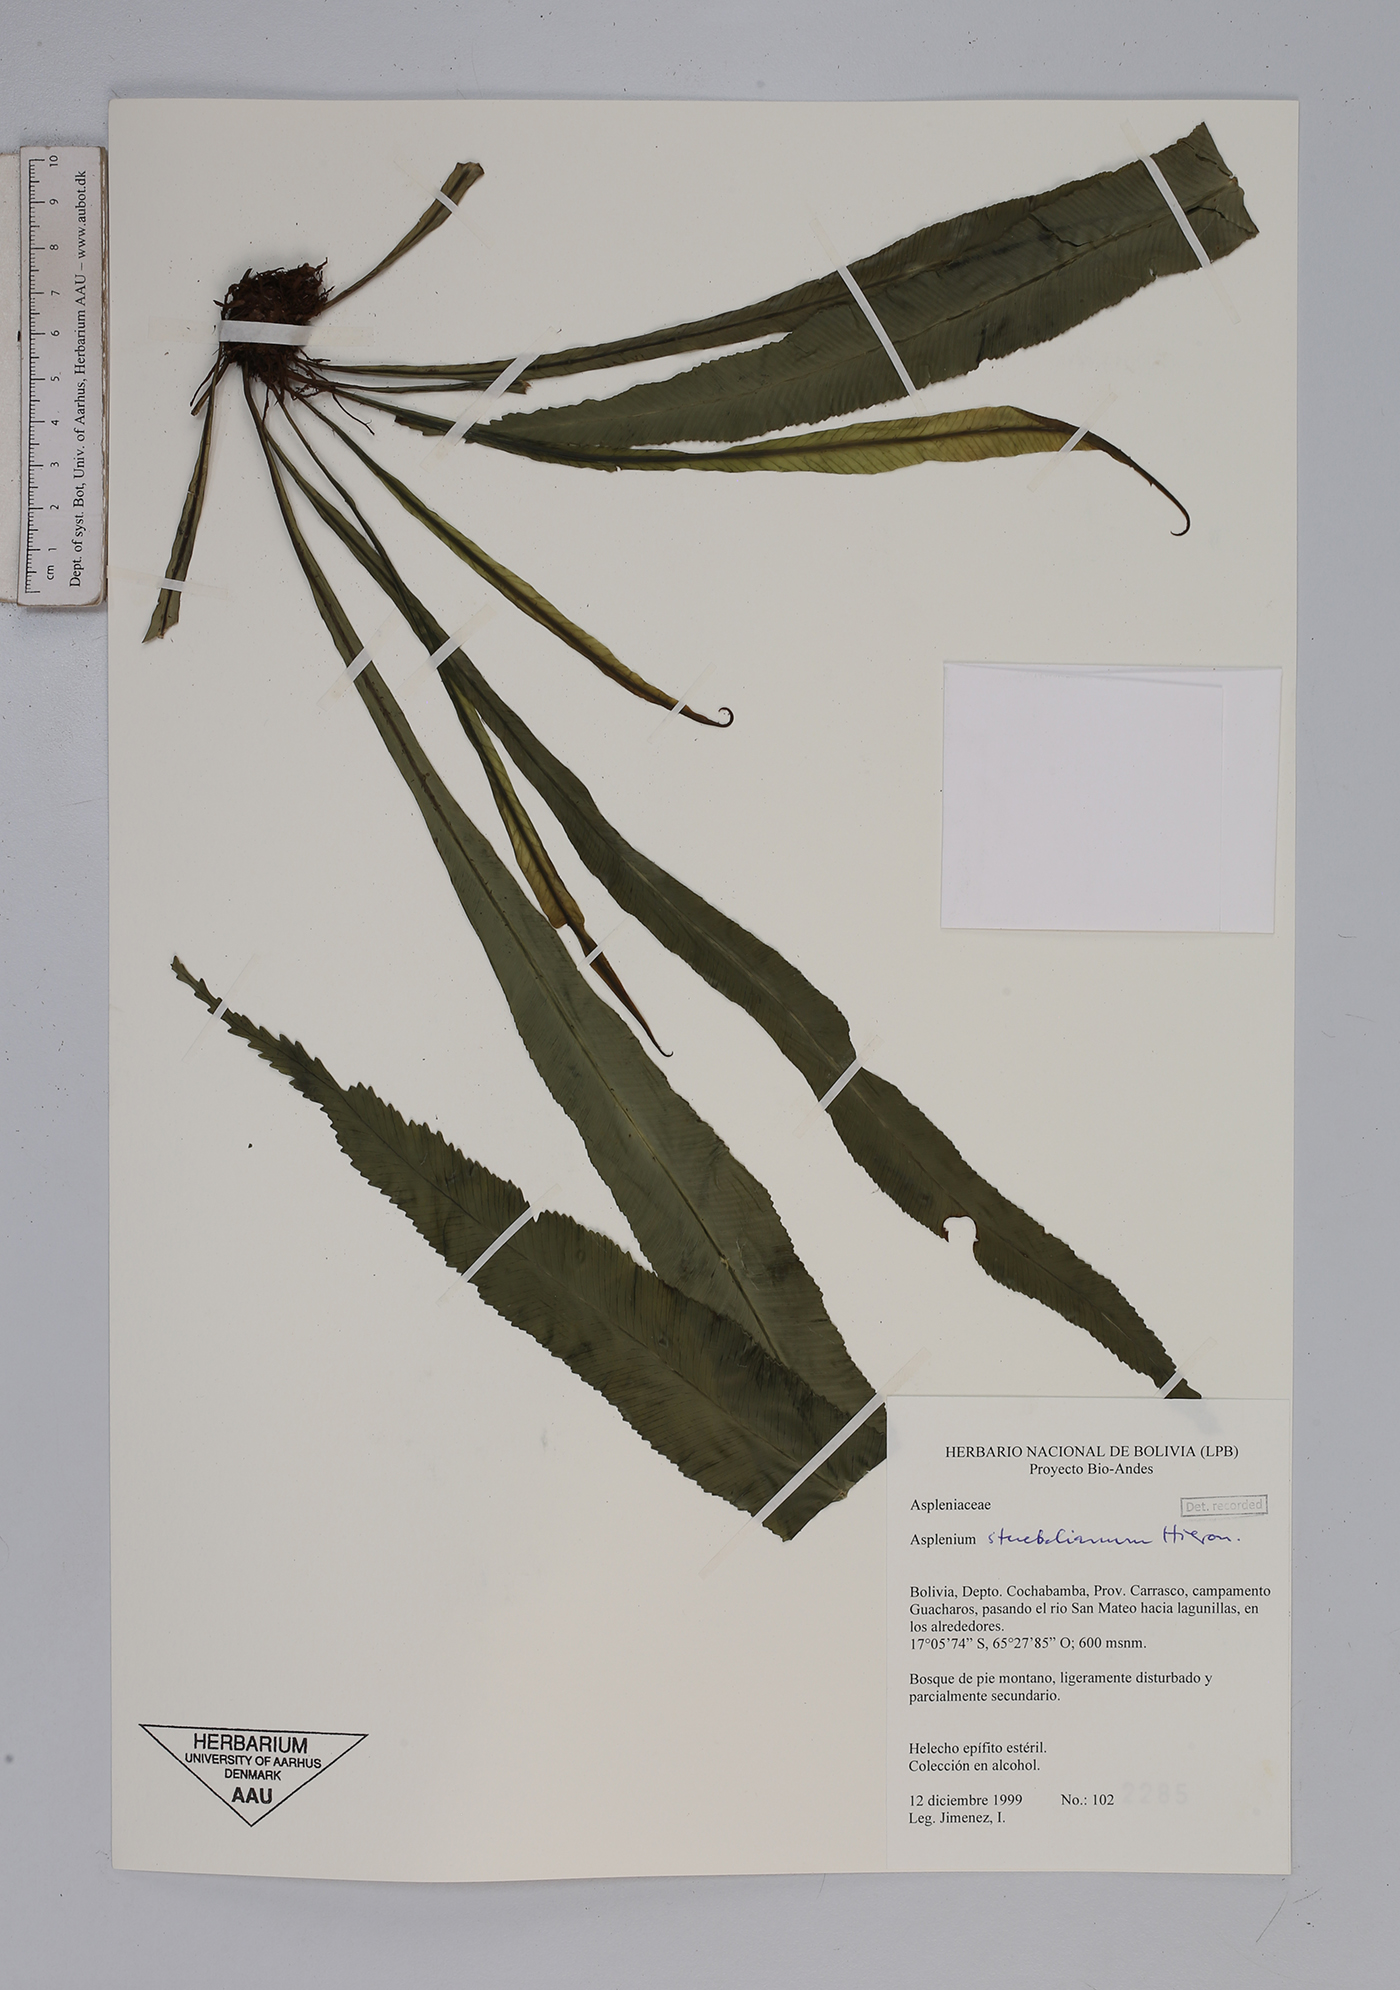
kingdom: Plantae
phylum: Tracheophyta
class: Polypodiopsida
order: Polypodiales
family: Aspleniaceae
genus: Asplenium
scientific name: Asplenium stuebelianum
